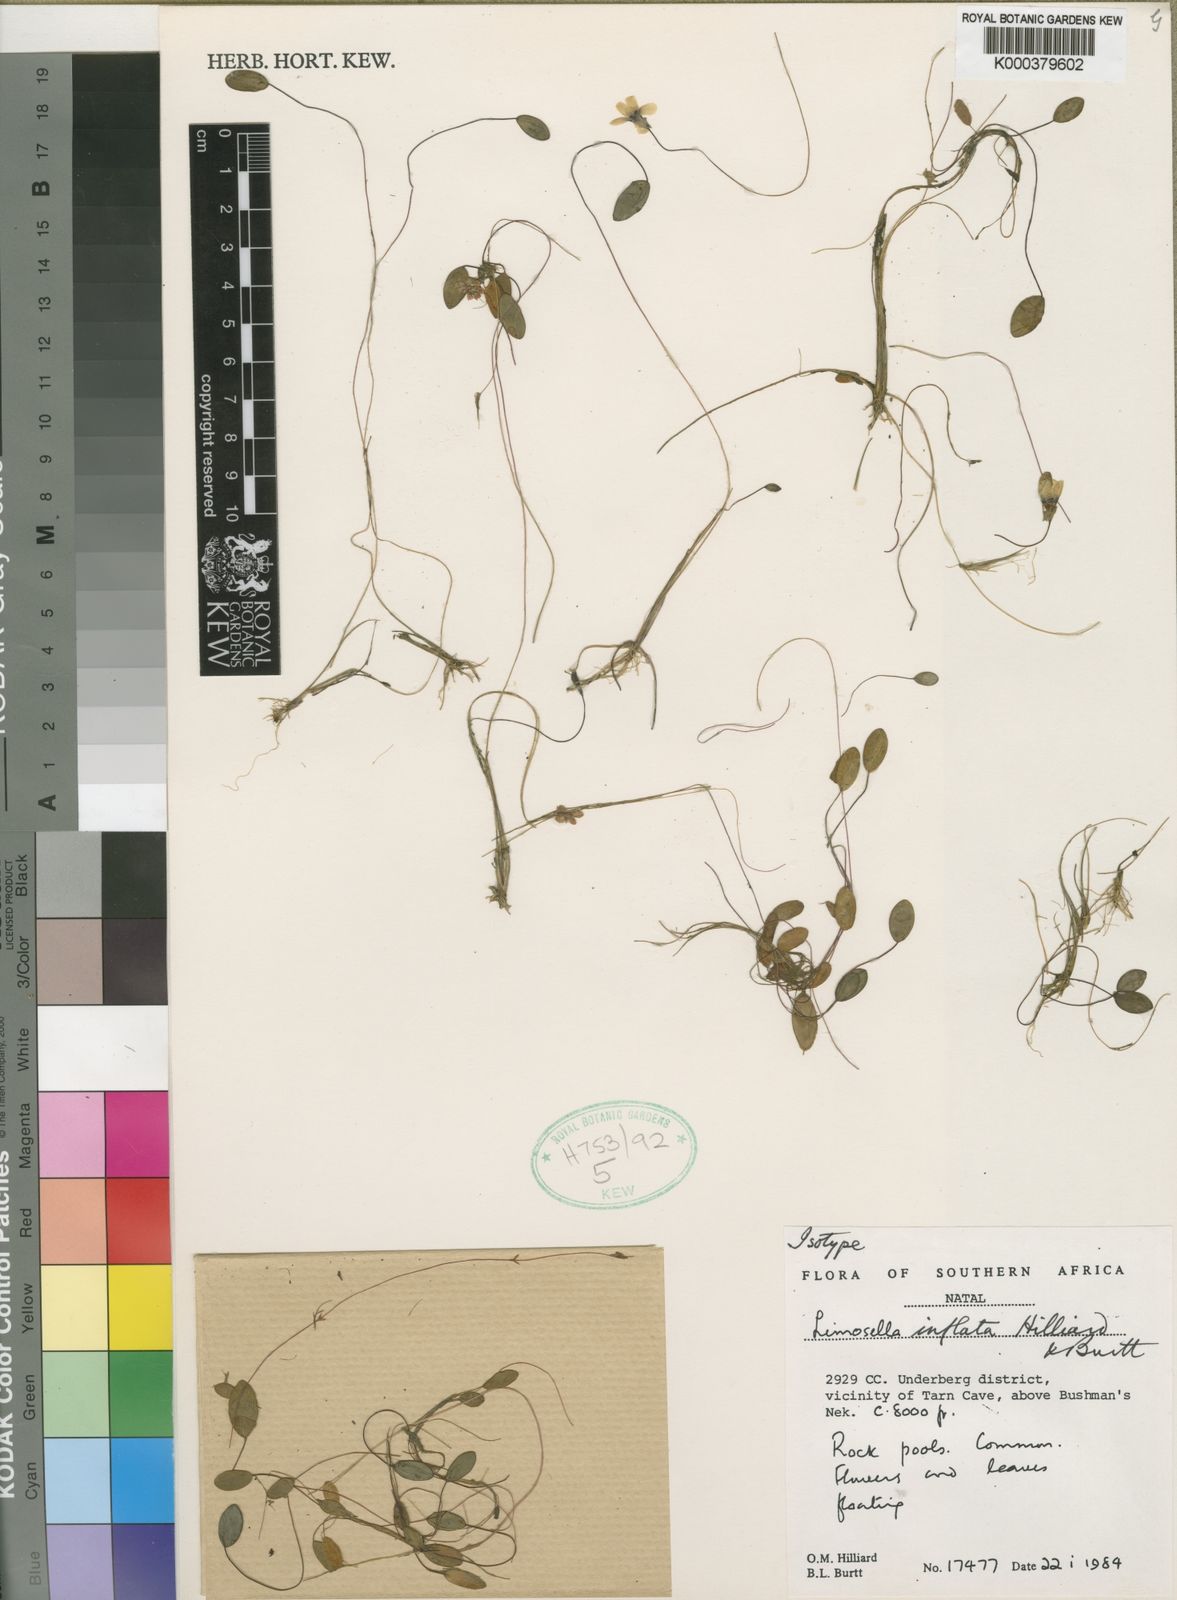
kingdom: Plantae
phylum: Tracheophyta
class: Magnoliopsida
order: Lamiales
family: Scrophulariaceae
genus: Limosella
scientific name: Limosella inflata
